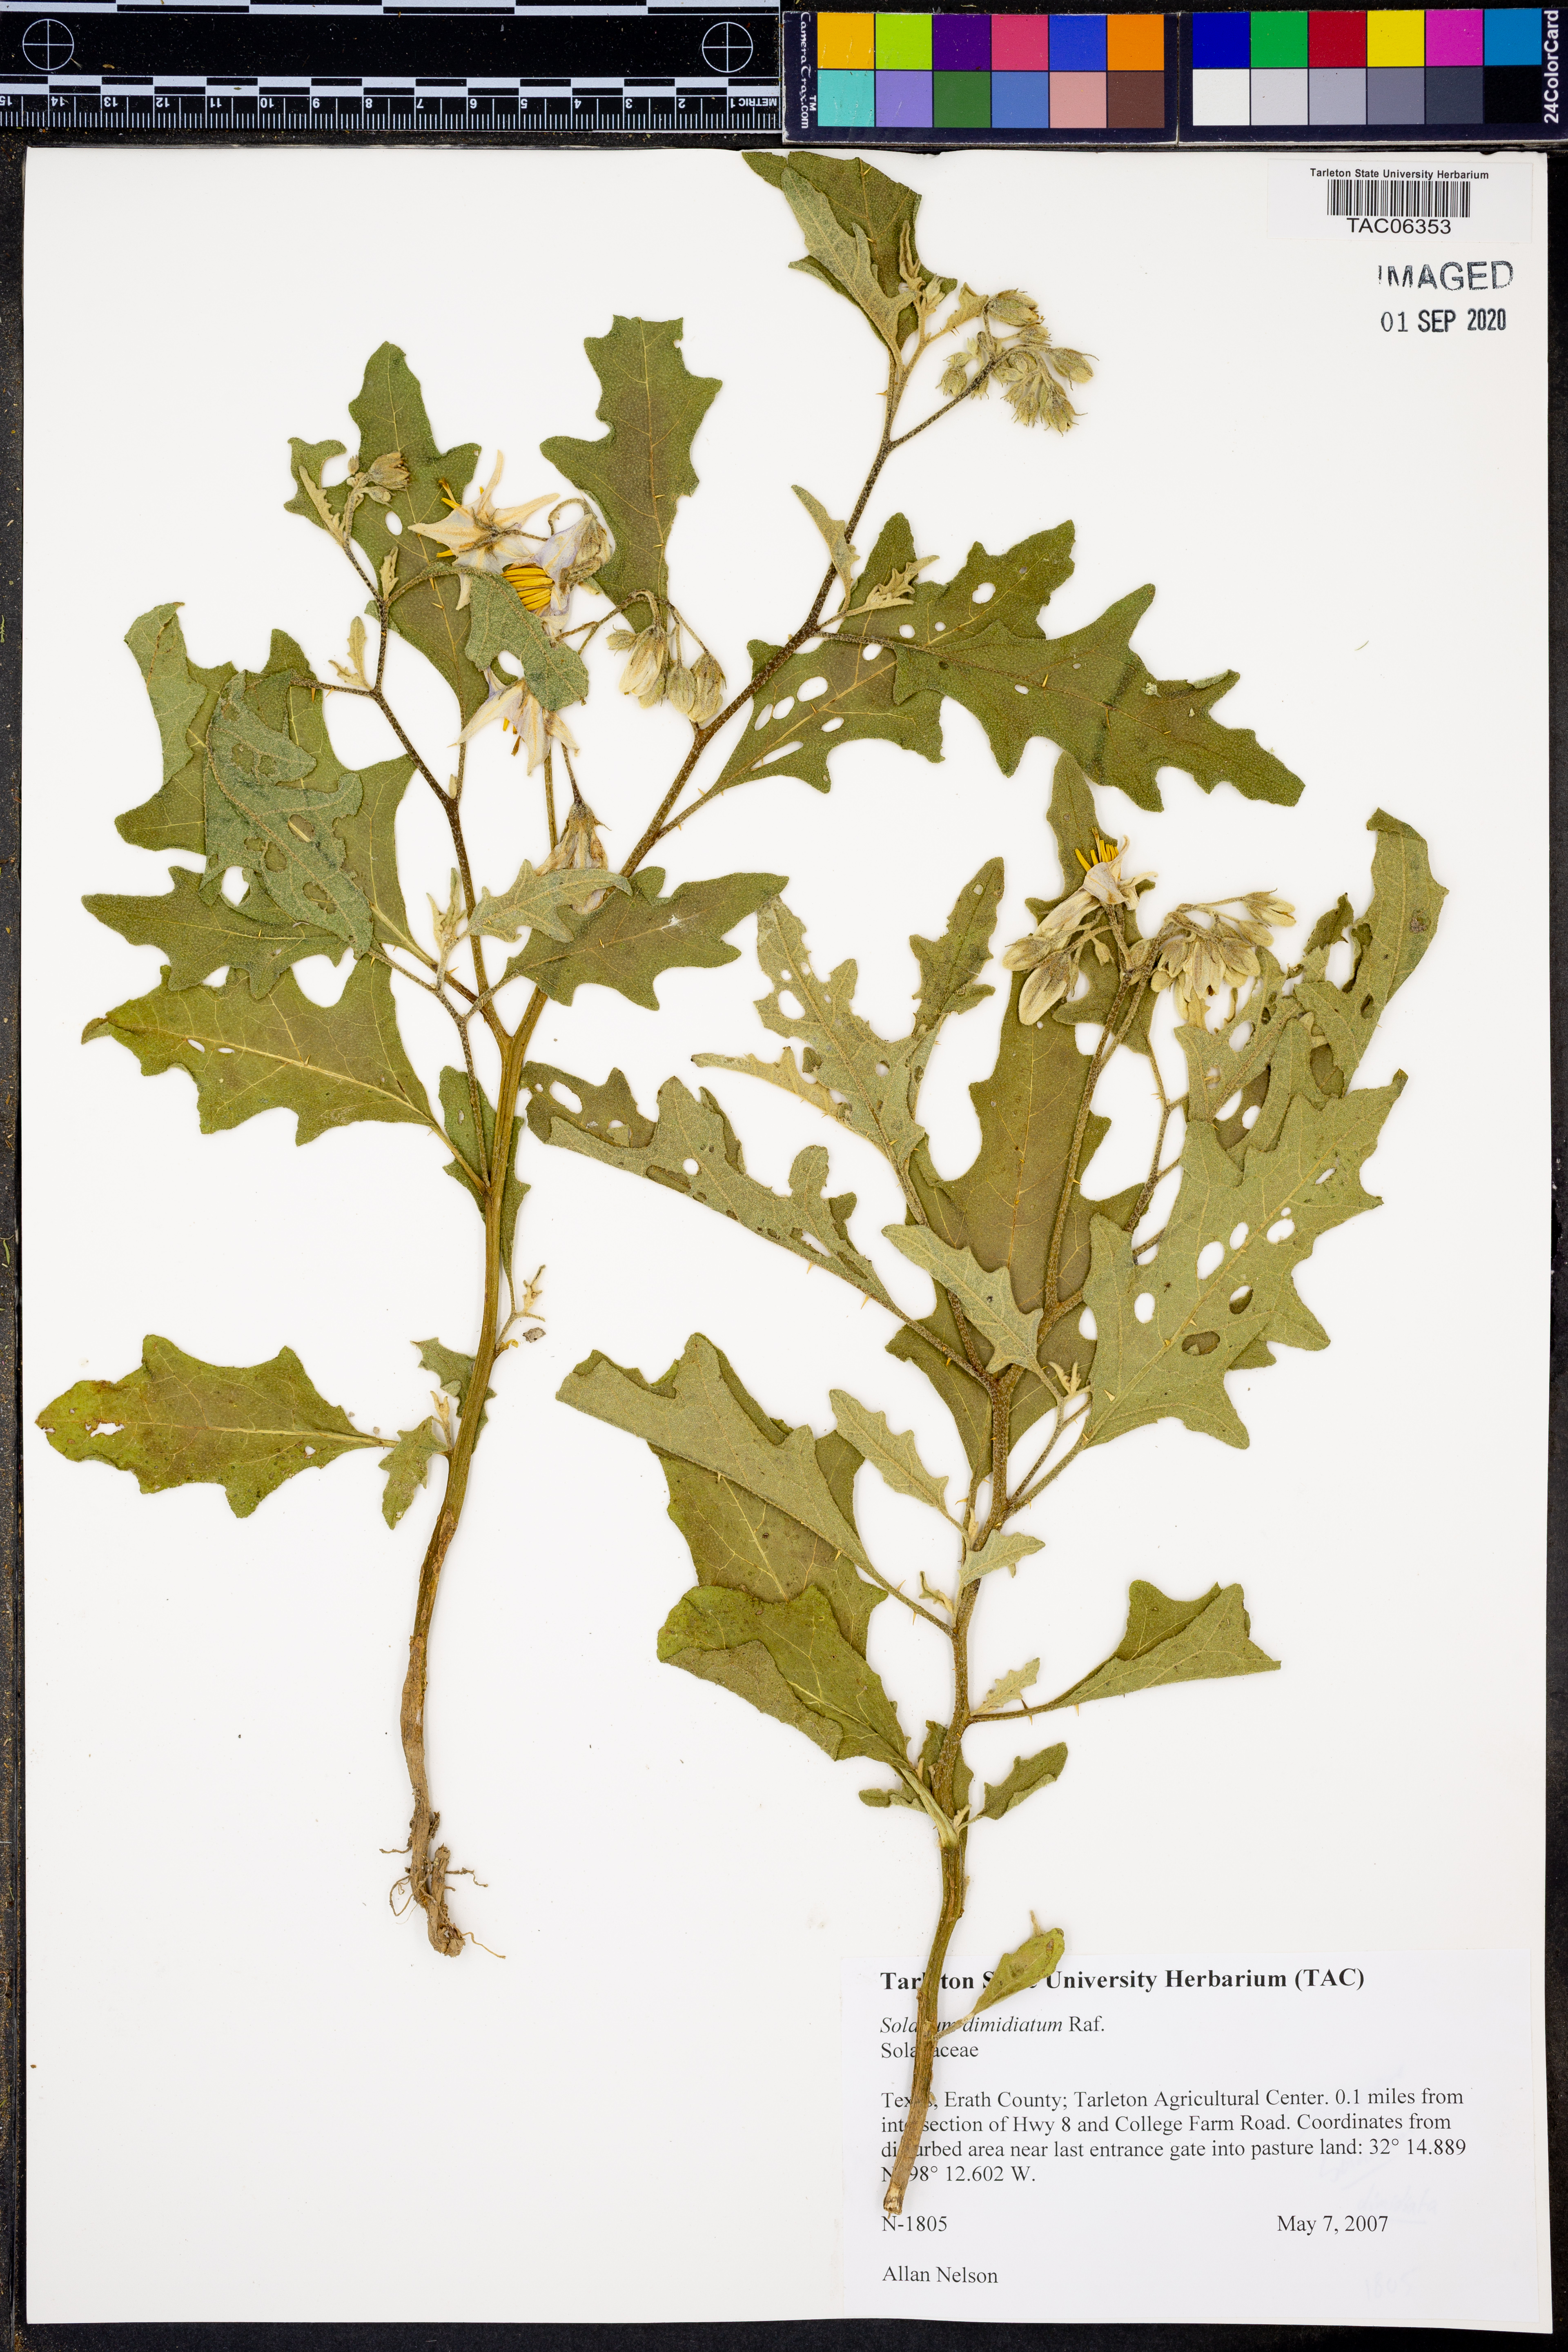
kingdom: Plantae
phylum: Tracheophyta
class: Magnoliopsida
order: Solanales
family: Solanaceae
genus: Solanum
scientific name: Solanum dimidiatum
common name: Carolina horse-nettle
